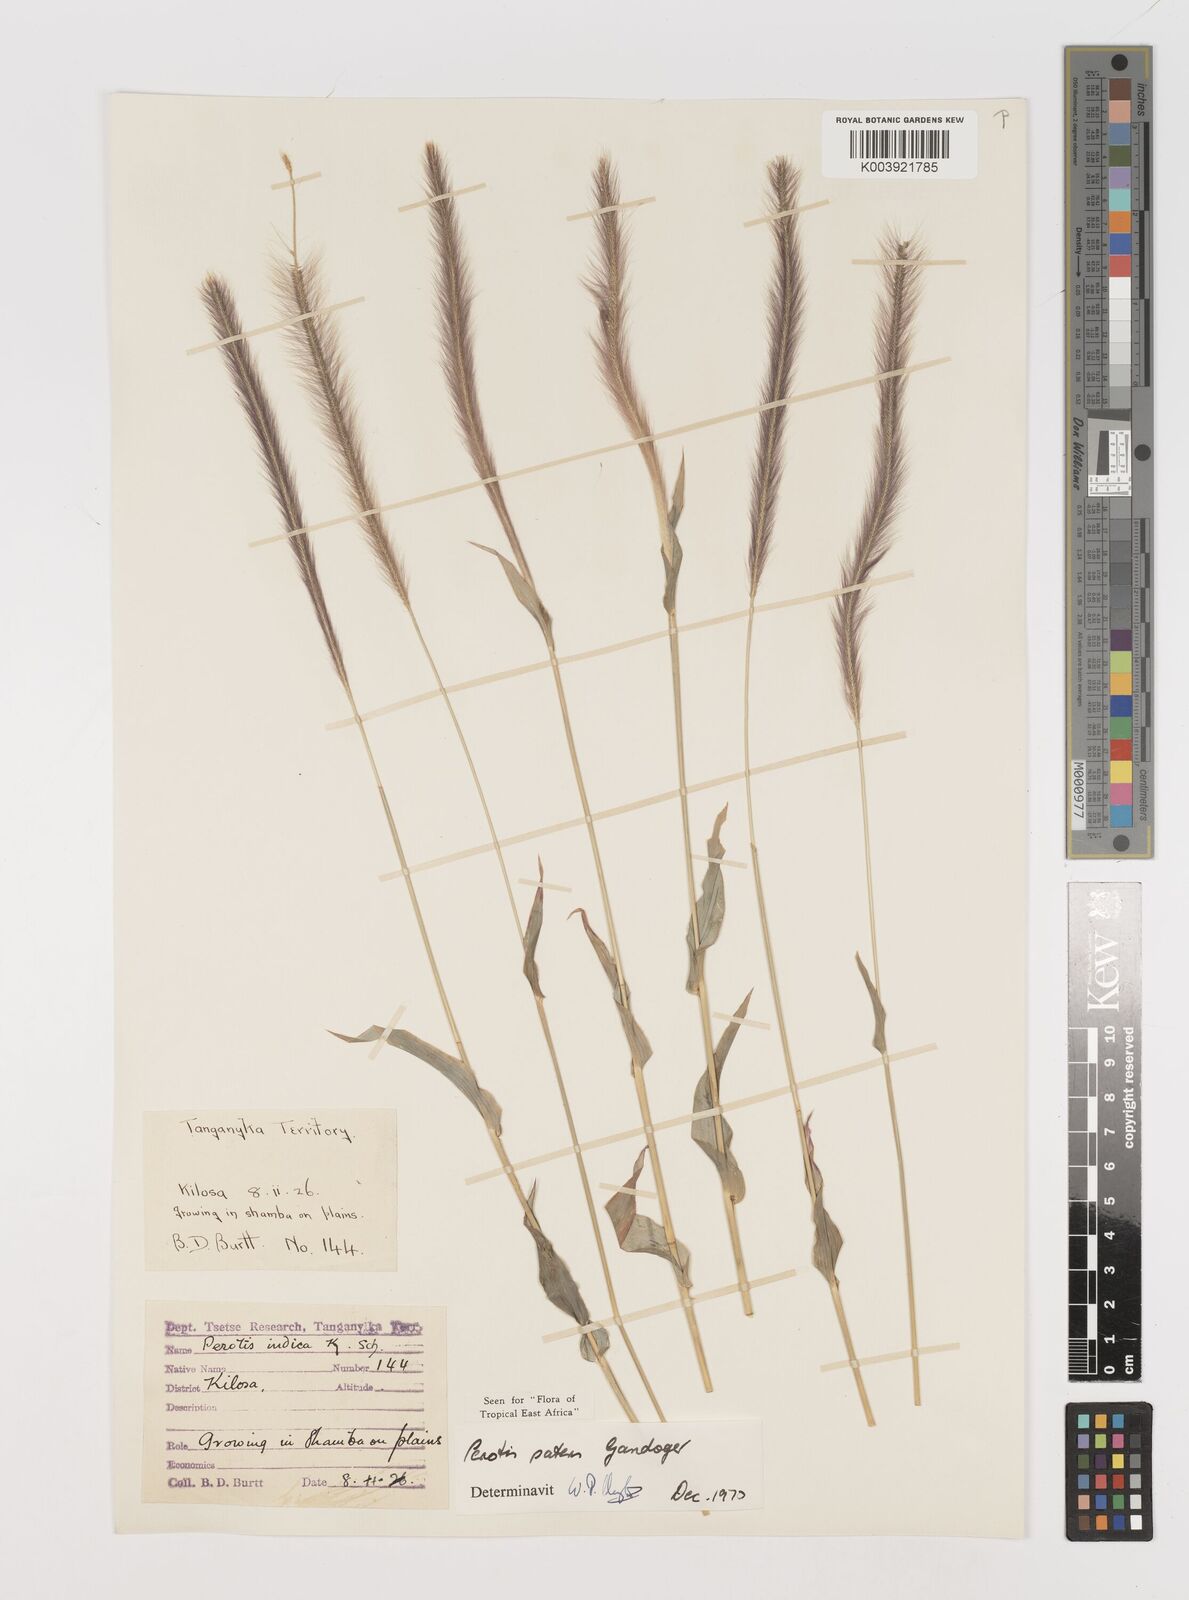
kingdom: Plantae
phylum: Tracheophyta
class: Liliopsida
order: Poales
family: Poaceae
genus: Perotis
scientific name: Perotis patens
